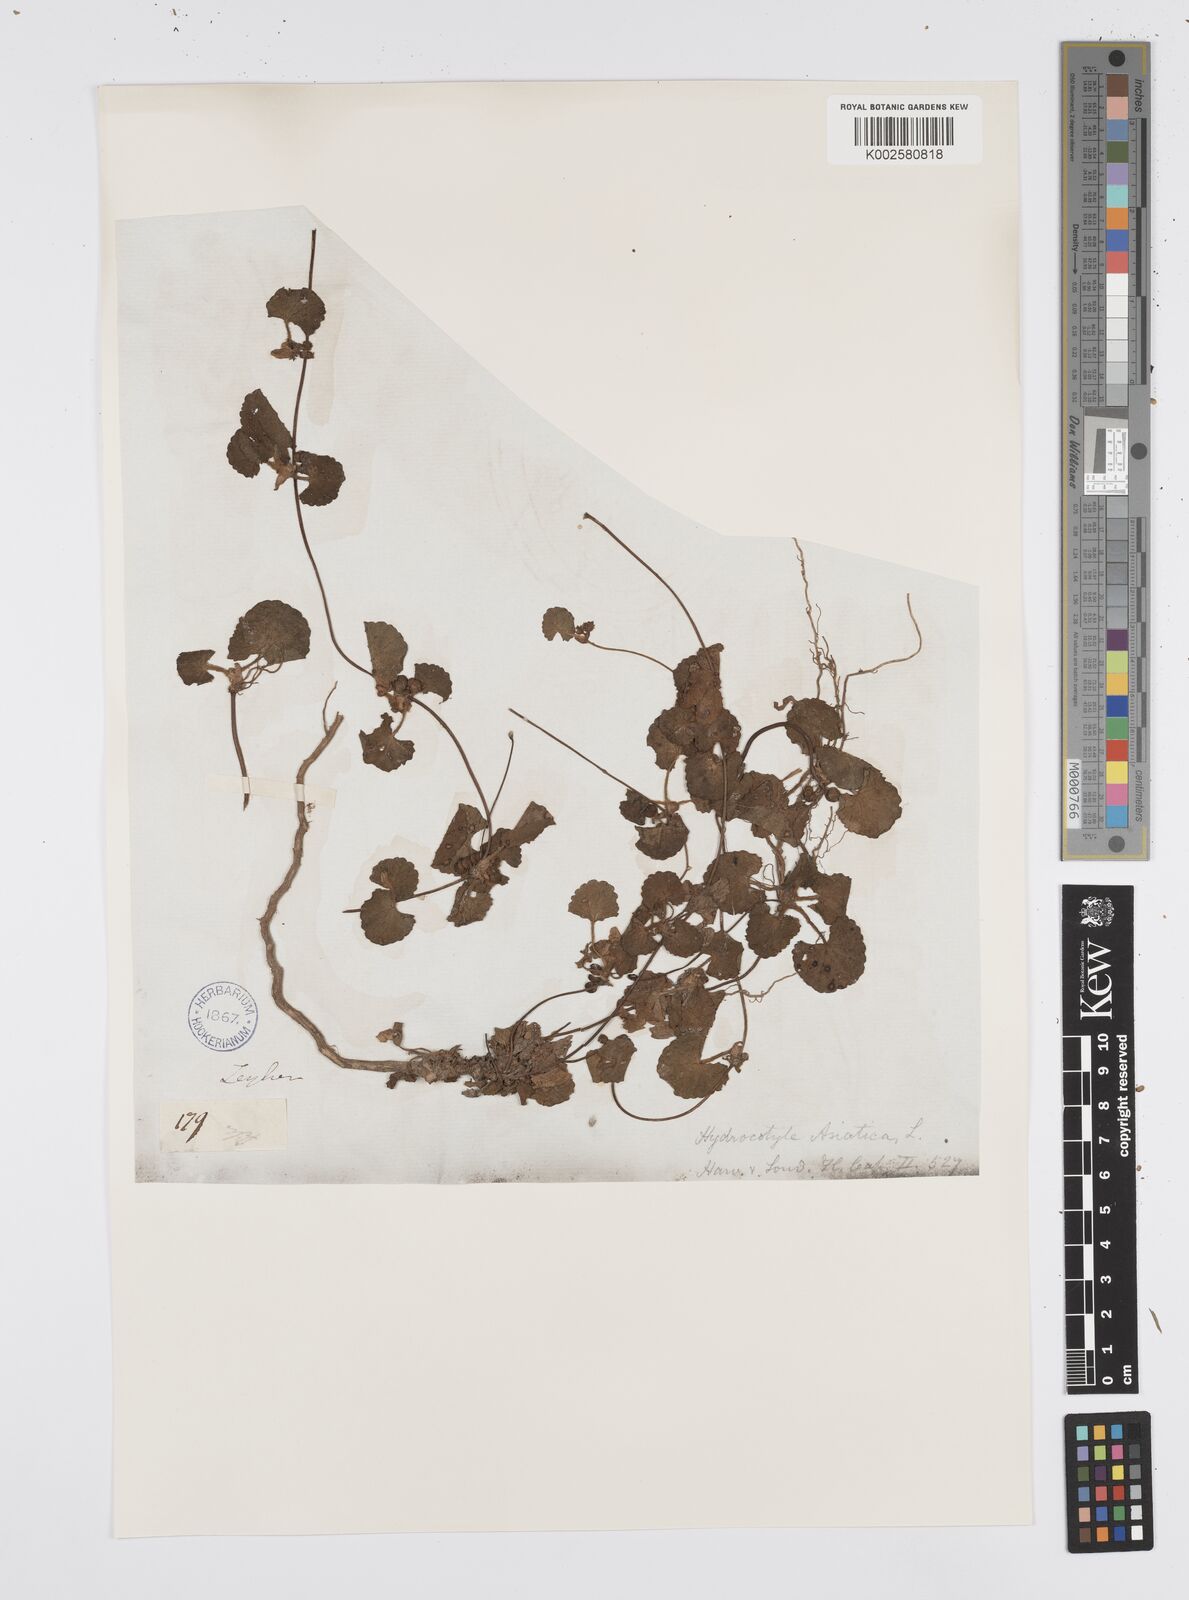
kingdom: Plantae
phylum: Tracheophyta
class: Magnoliopsida
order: Apiales
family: Apiaceae
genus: Centella
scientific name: Centella coriacea
